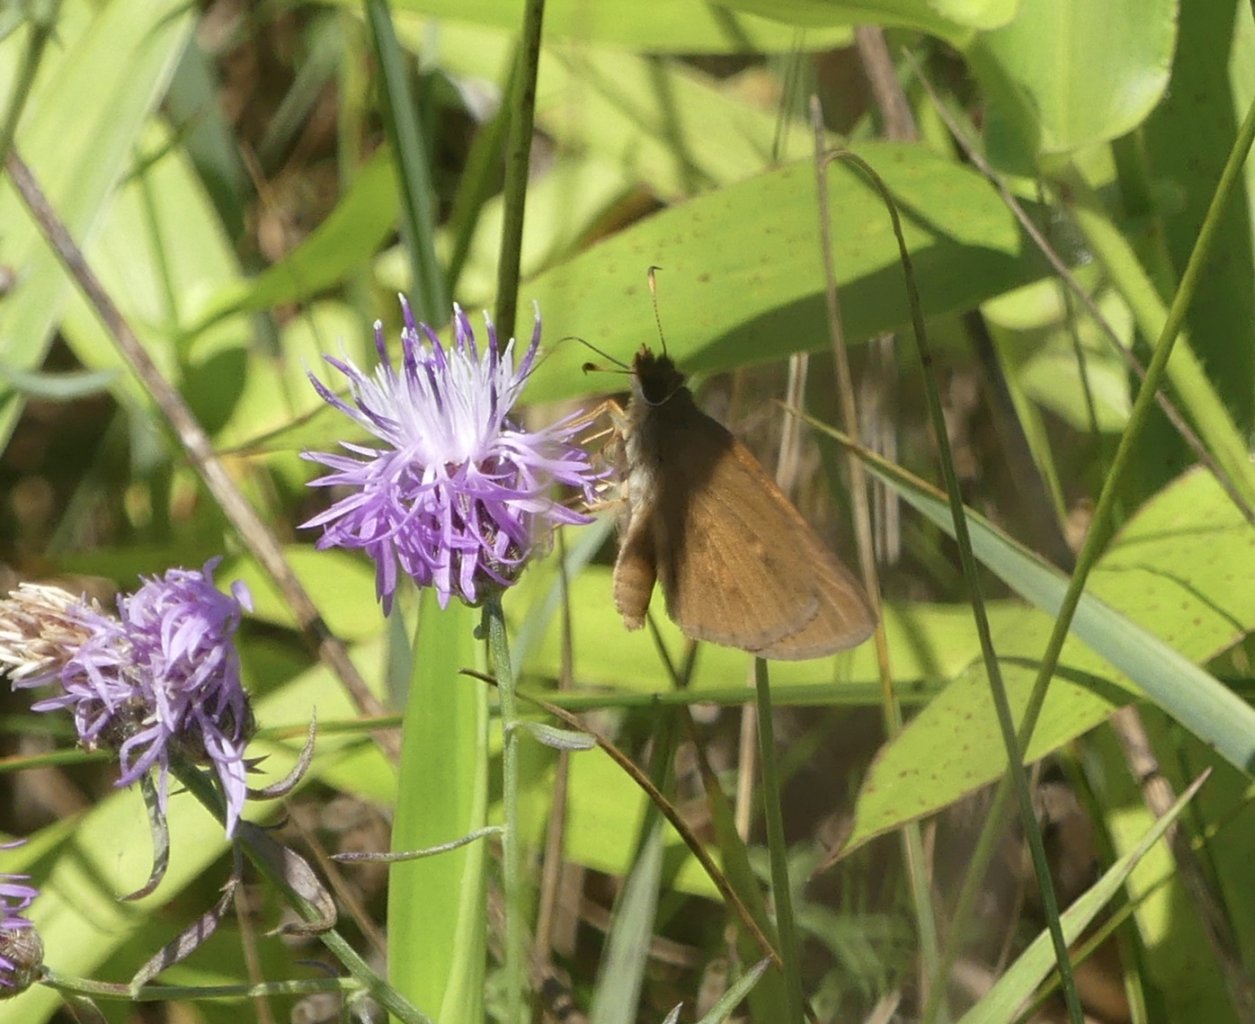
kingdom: Animalia
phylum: Arthropoda
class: Insecta
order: Lepidoptera
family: Hesperiidae
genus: Poanes
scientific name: Poanes viator
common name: Broad-winged Skipper
